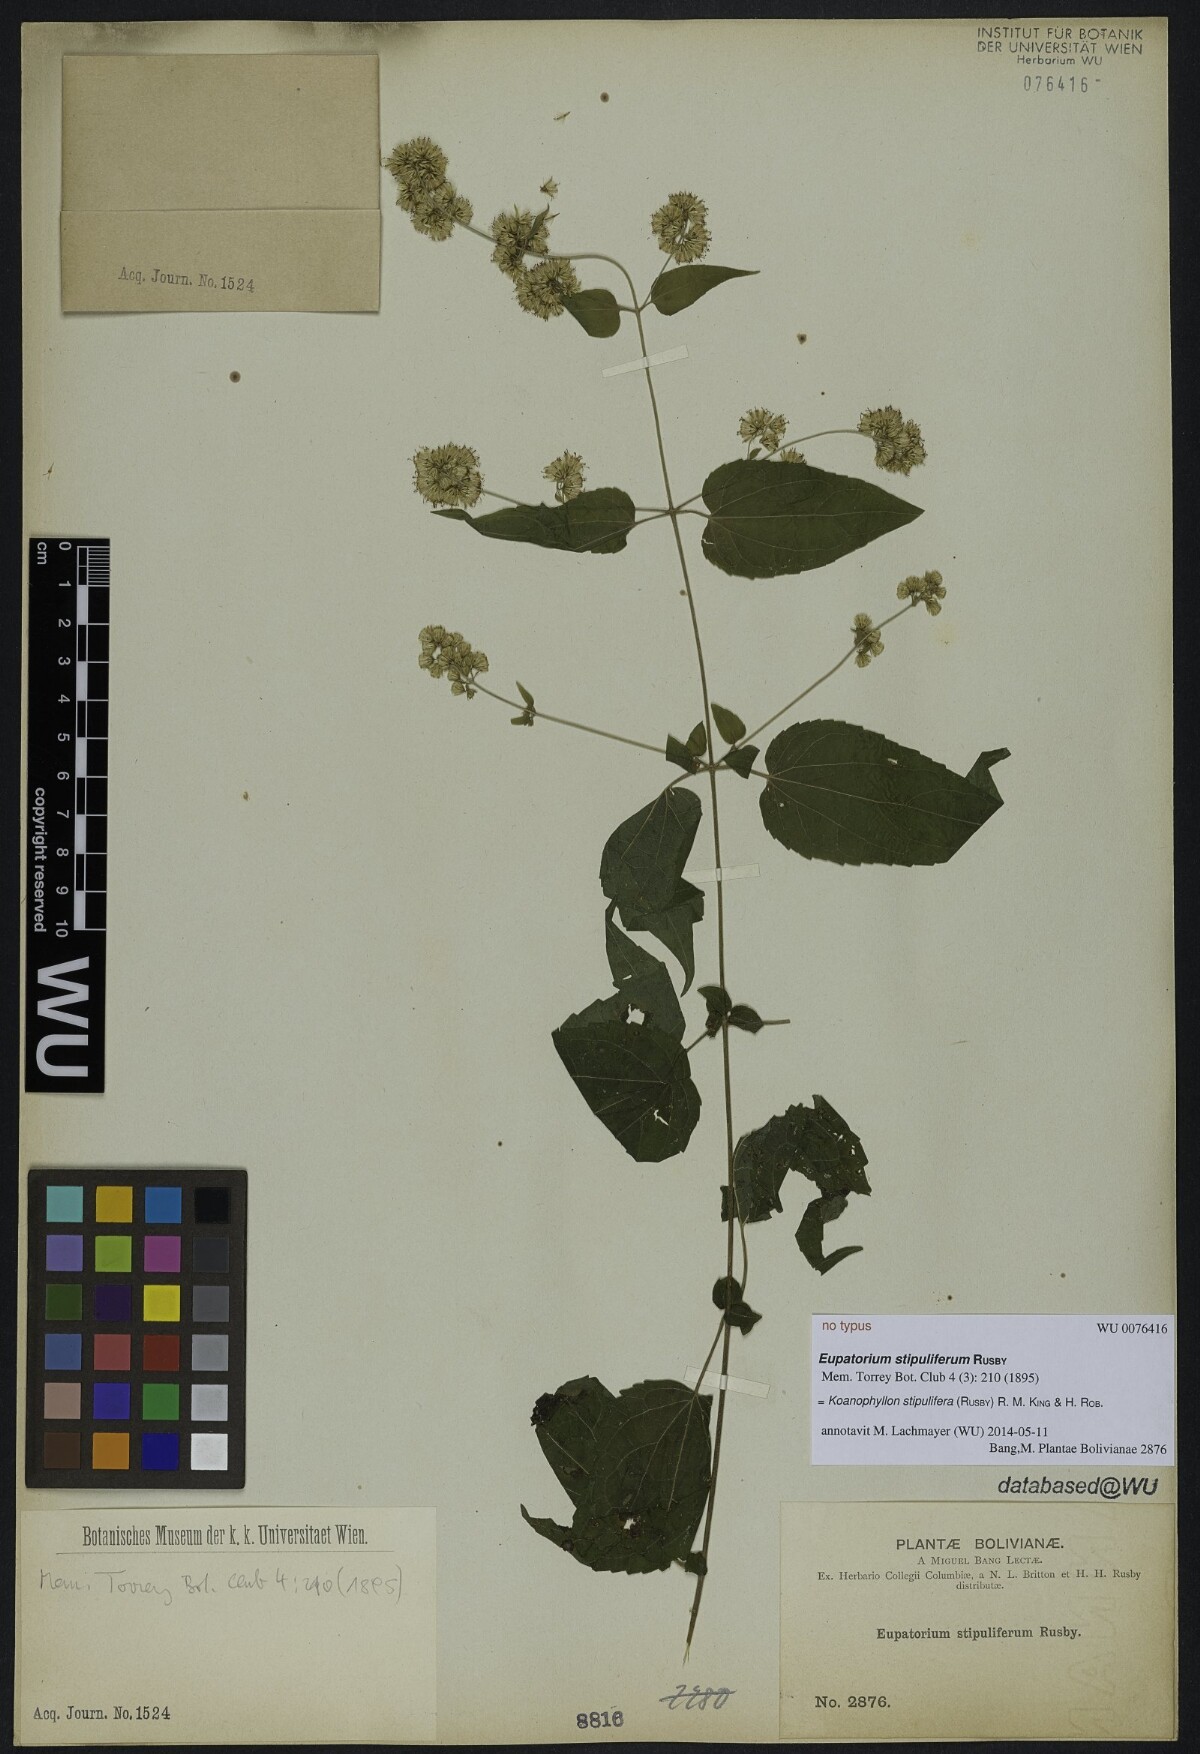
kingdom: Plantae
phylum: Tracheophyta
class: Magnoliopsida
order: Asterales
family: Asteraceae
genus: Koanophyllon
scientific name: Koanophyllon solidaginoides
